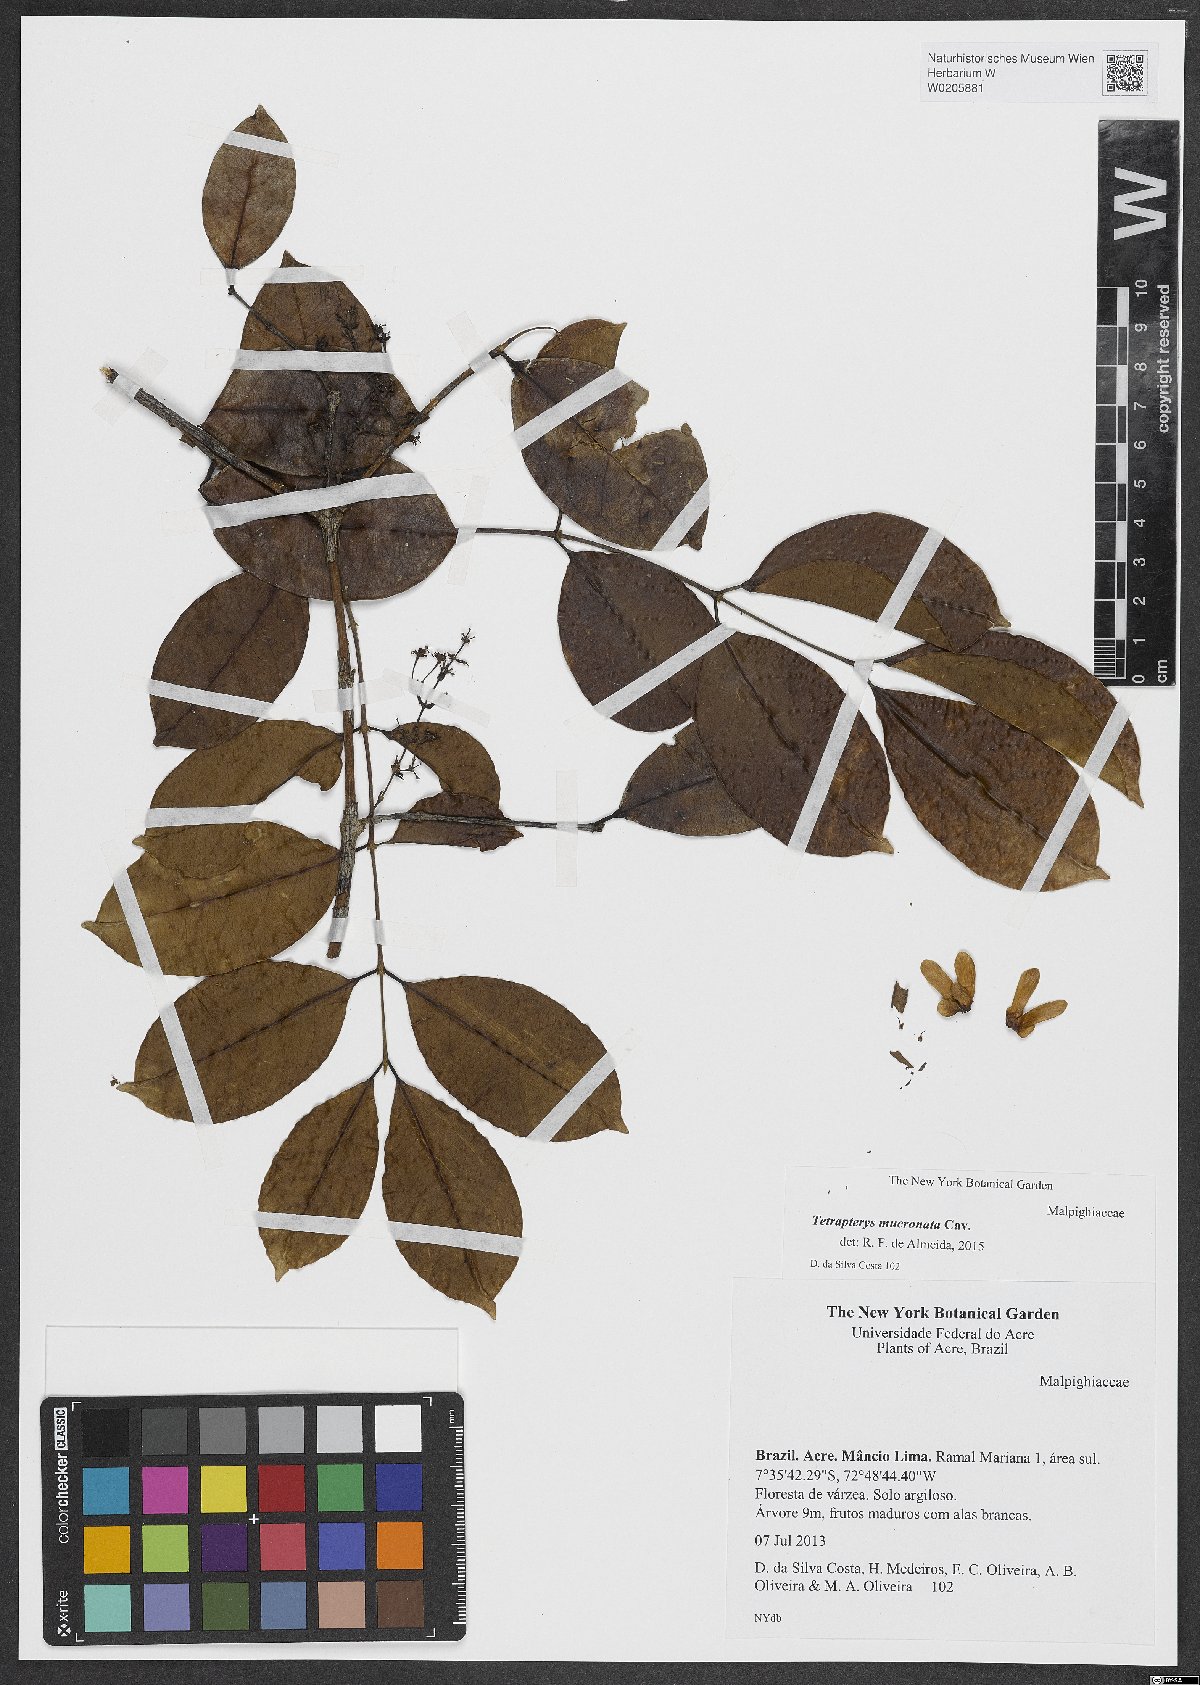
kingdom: Plantae
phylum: Tracheophyta
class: Magnoliopsida
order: Malpighiales
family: Malpighiaceae
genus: Tetrapterys
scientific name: Tetrapterys mucronata
